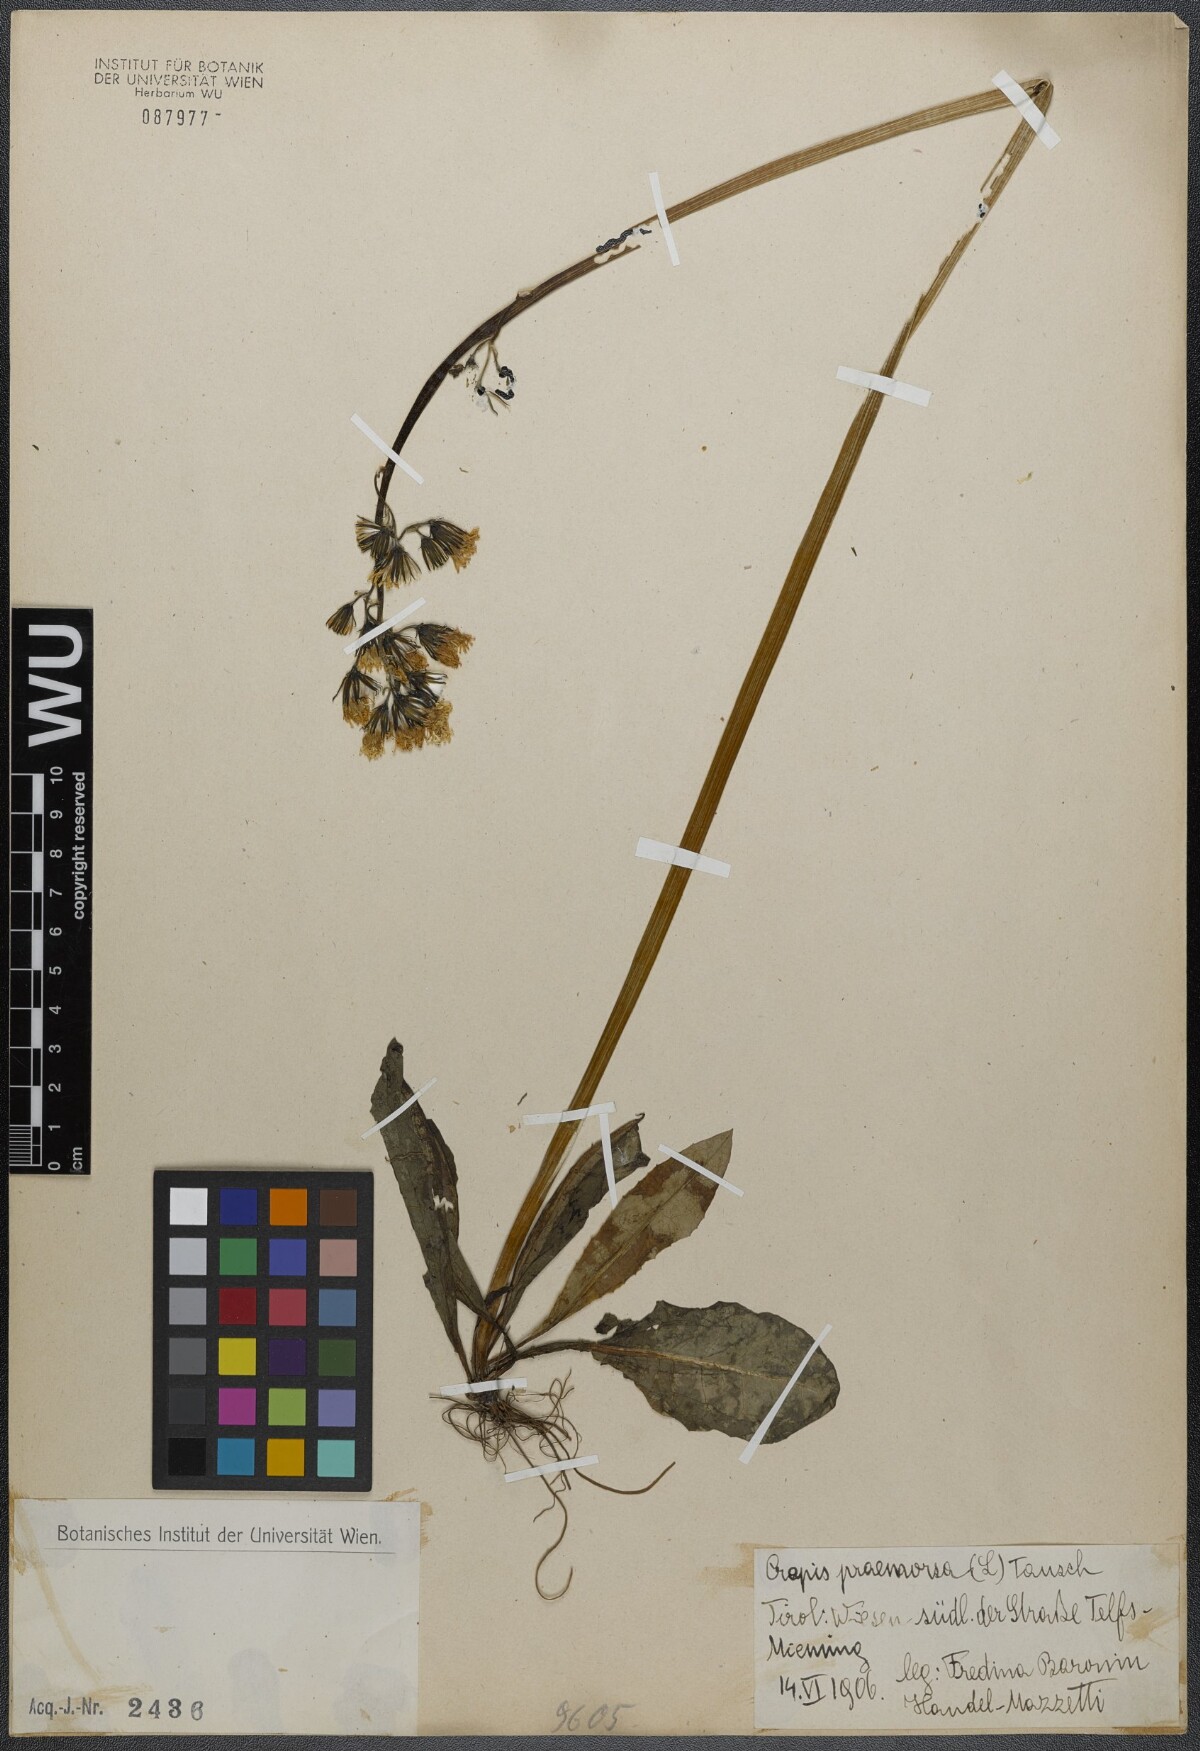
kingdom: Plantae
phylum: Tracheophyta
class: Magnoliopsida
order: Asterales
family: Asteraceae
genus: Crepis
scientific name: Crepis praemorsa
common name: Leafless hawk's-beard
